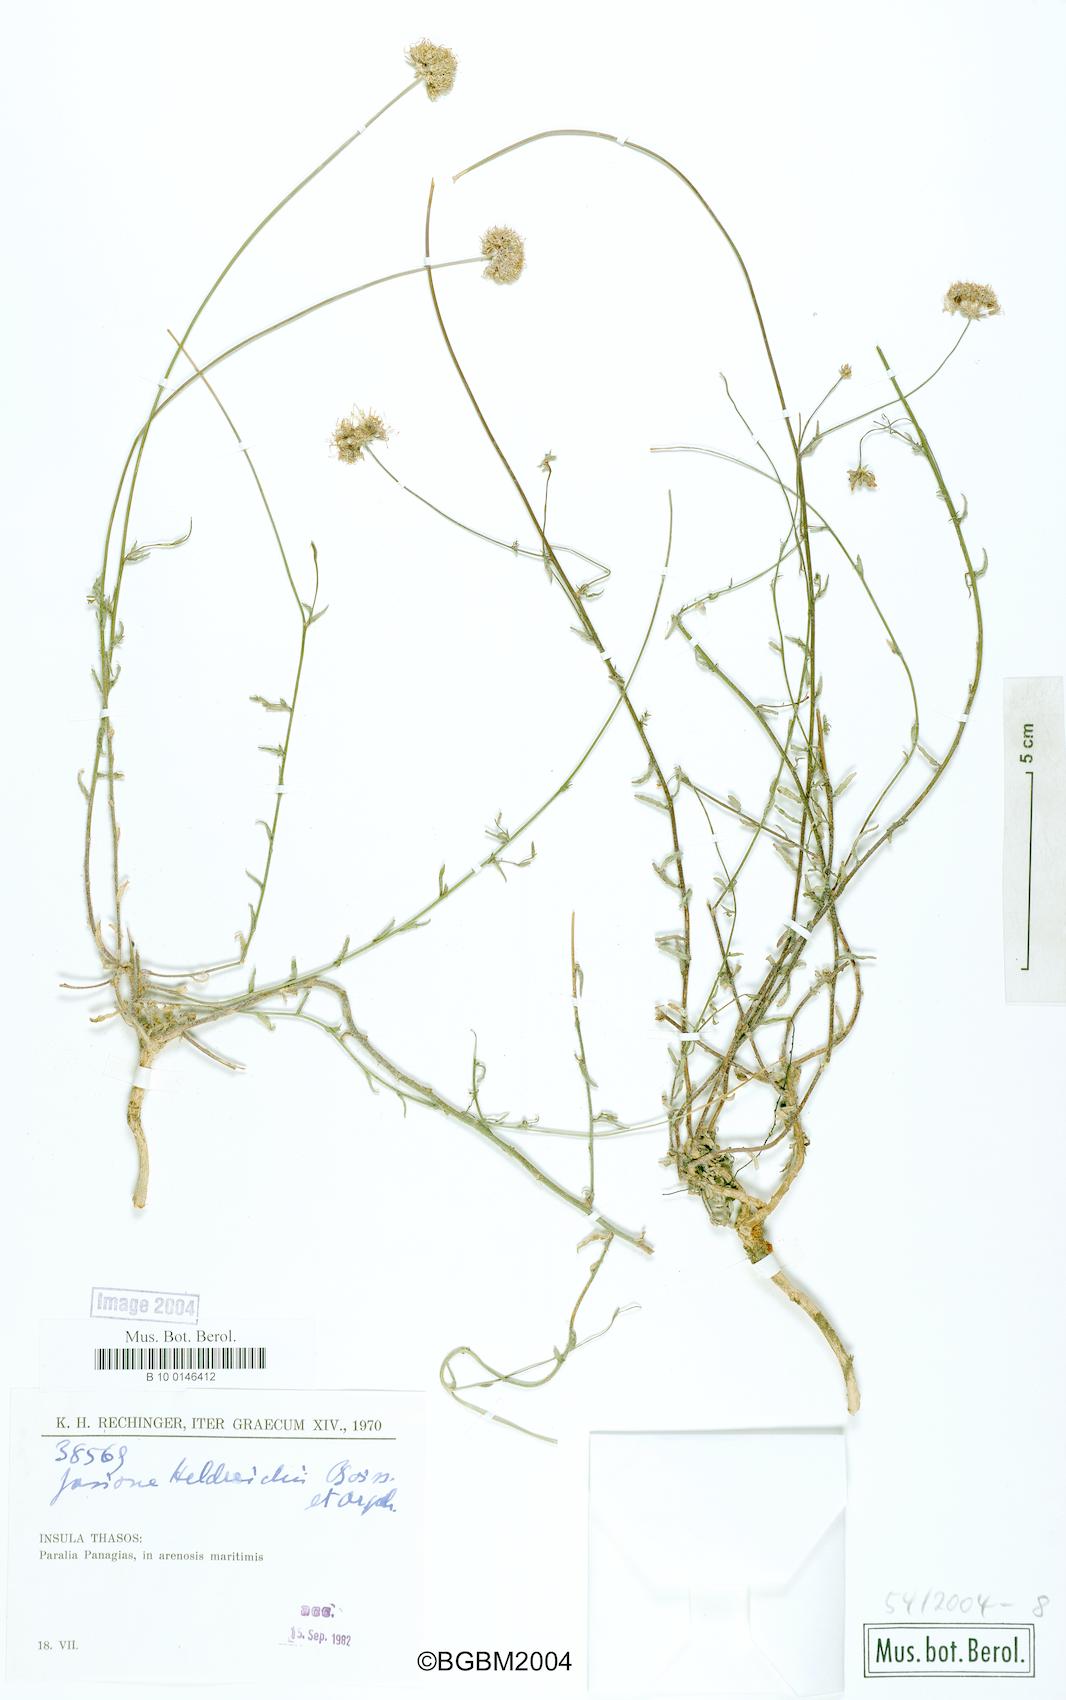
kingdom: Plantae
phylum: Tracheophyta
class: Magnoliopsida
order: Asterales
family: Campanulaceae
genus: Jasione
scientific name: Jasione heldreichii
